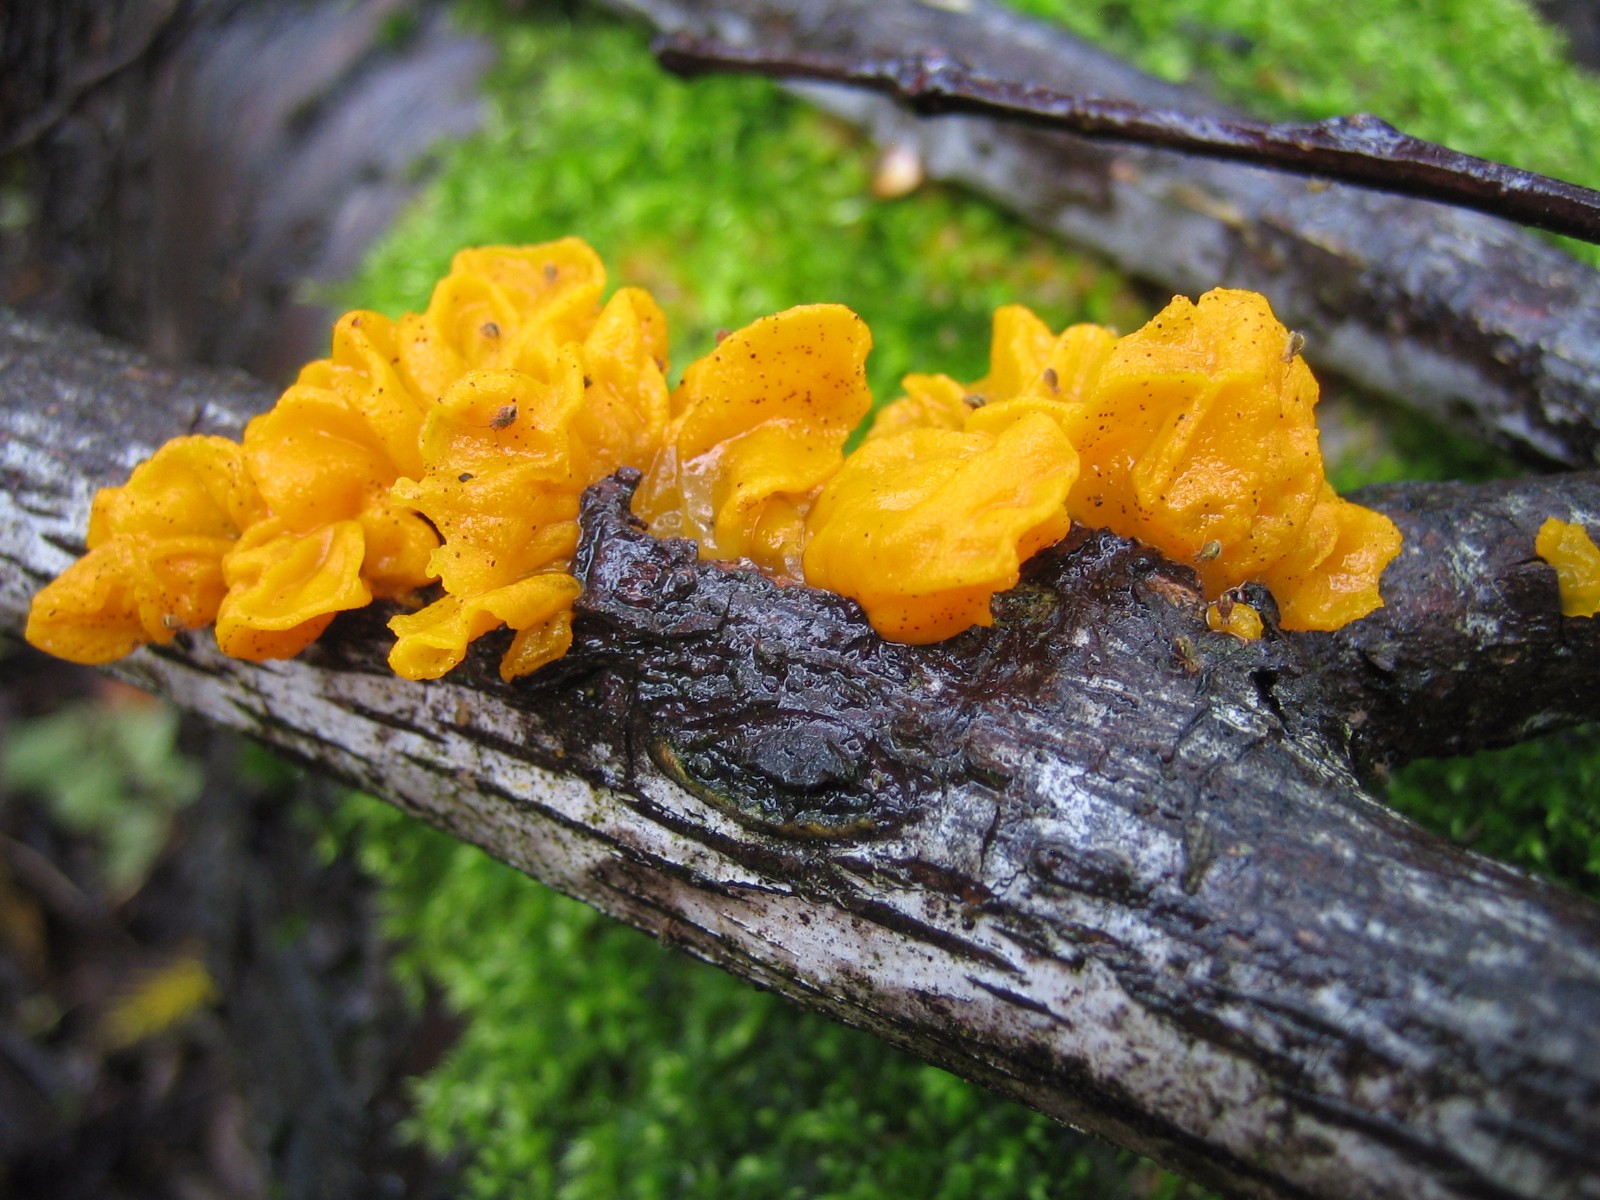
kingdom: Fungi
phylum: Basidiomycota
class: Tremellomycetes
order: Tremellales
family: Tremellaceae
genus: Tremella
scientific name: Tremella mesenterica
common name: gul bævresvamp
